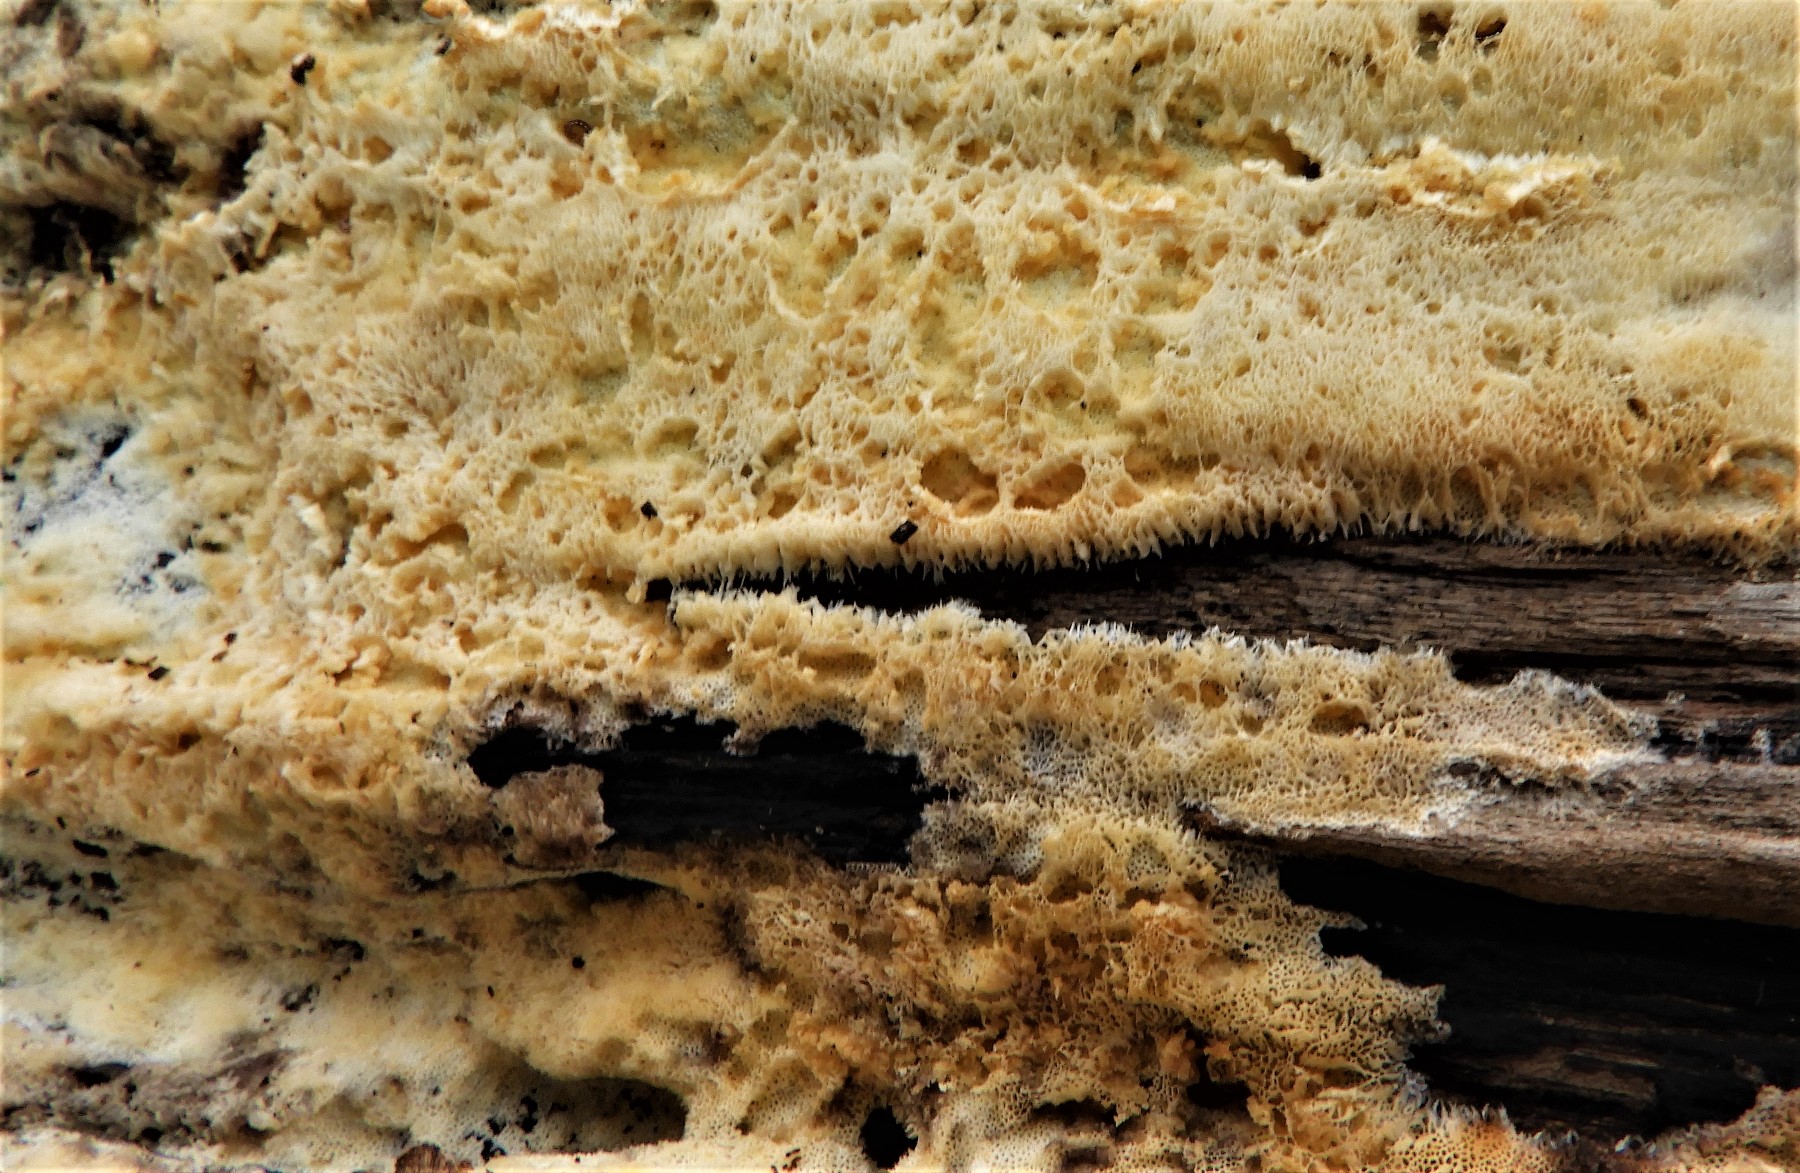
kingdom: Fungi
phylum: Basidiomycota
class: Agaricomycetes
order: Polyporales
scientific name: Polyporales
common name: poresvampordenen
